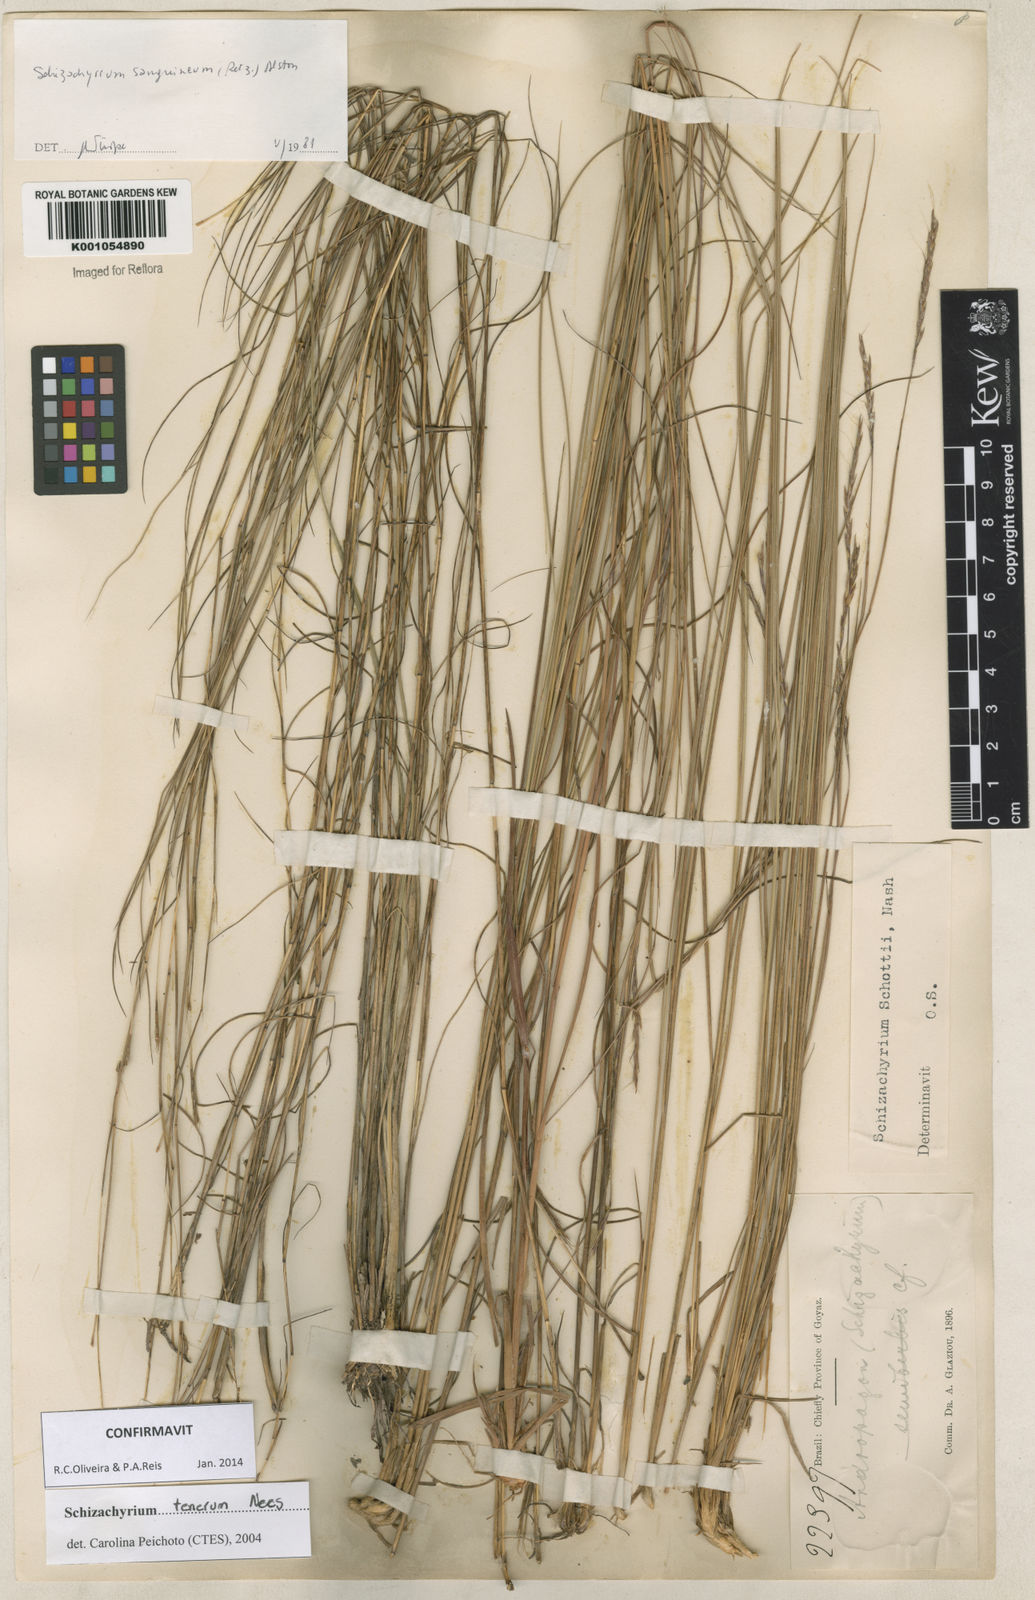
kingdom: Plantae
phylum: Tracheophyta
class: Liliopsida
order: Poales
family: Poaceae
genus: Andropogon
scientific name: Andropogon tener
